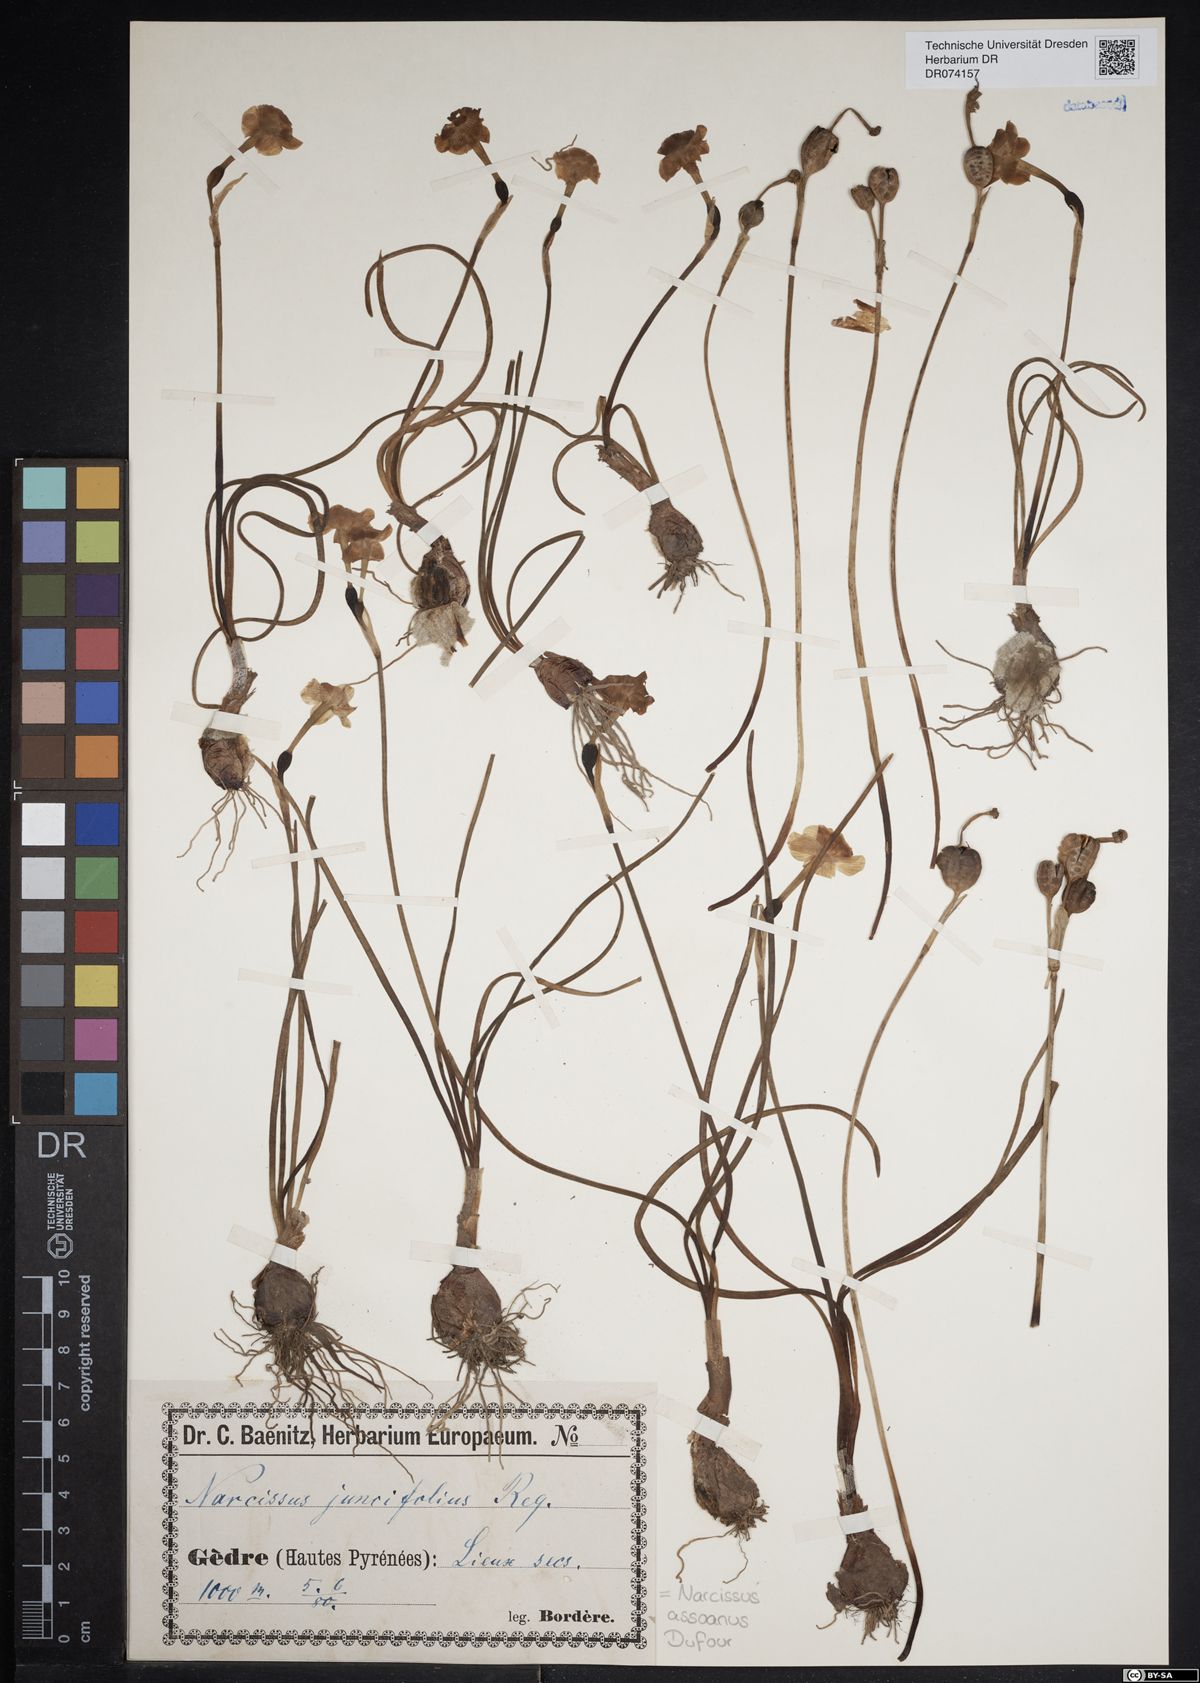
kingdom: Plantae
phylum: Tracheophyta
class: Liliopsida
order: Asparagales
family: Amaryllidaceae
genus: Narcissus
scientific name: Narcissus assoanus
